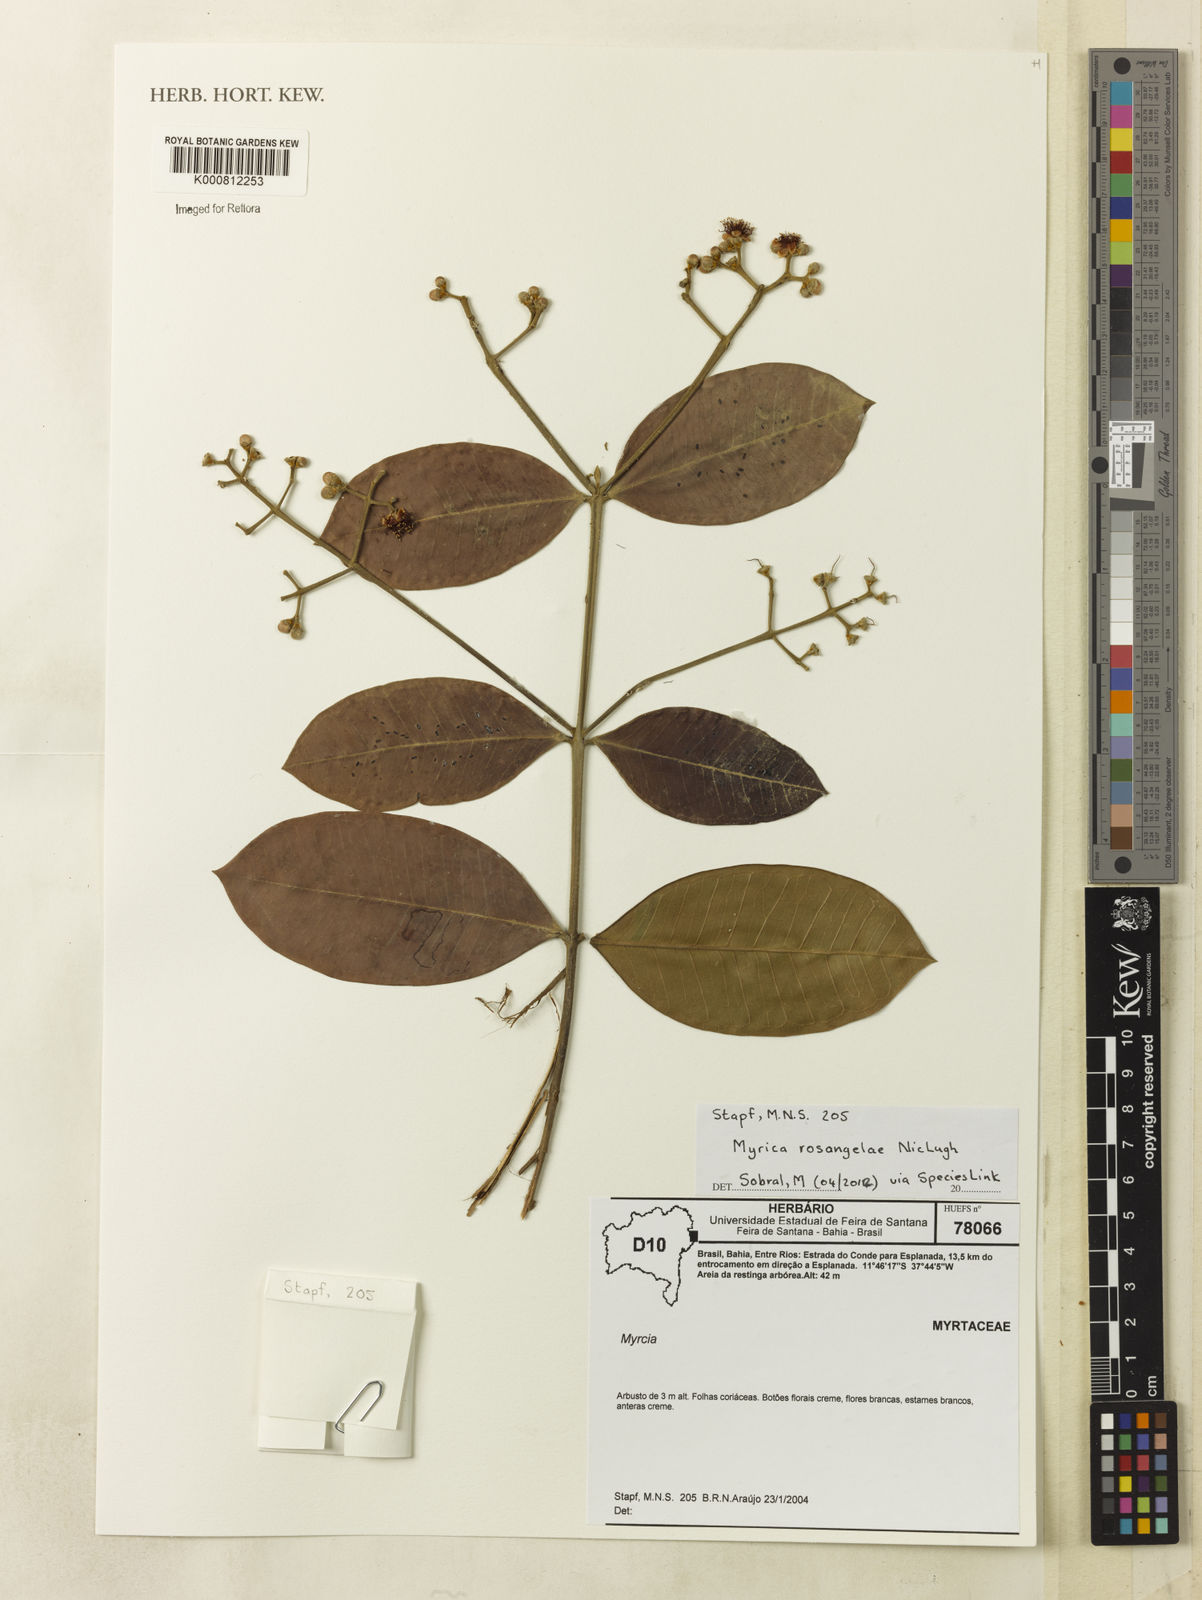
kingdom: Plantae
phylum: Tracheophyta
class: Magnoliopsida
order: Myrtales
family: Myrtaceae
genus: Myrcia
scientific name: Myrcia rosangelae
